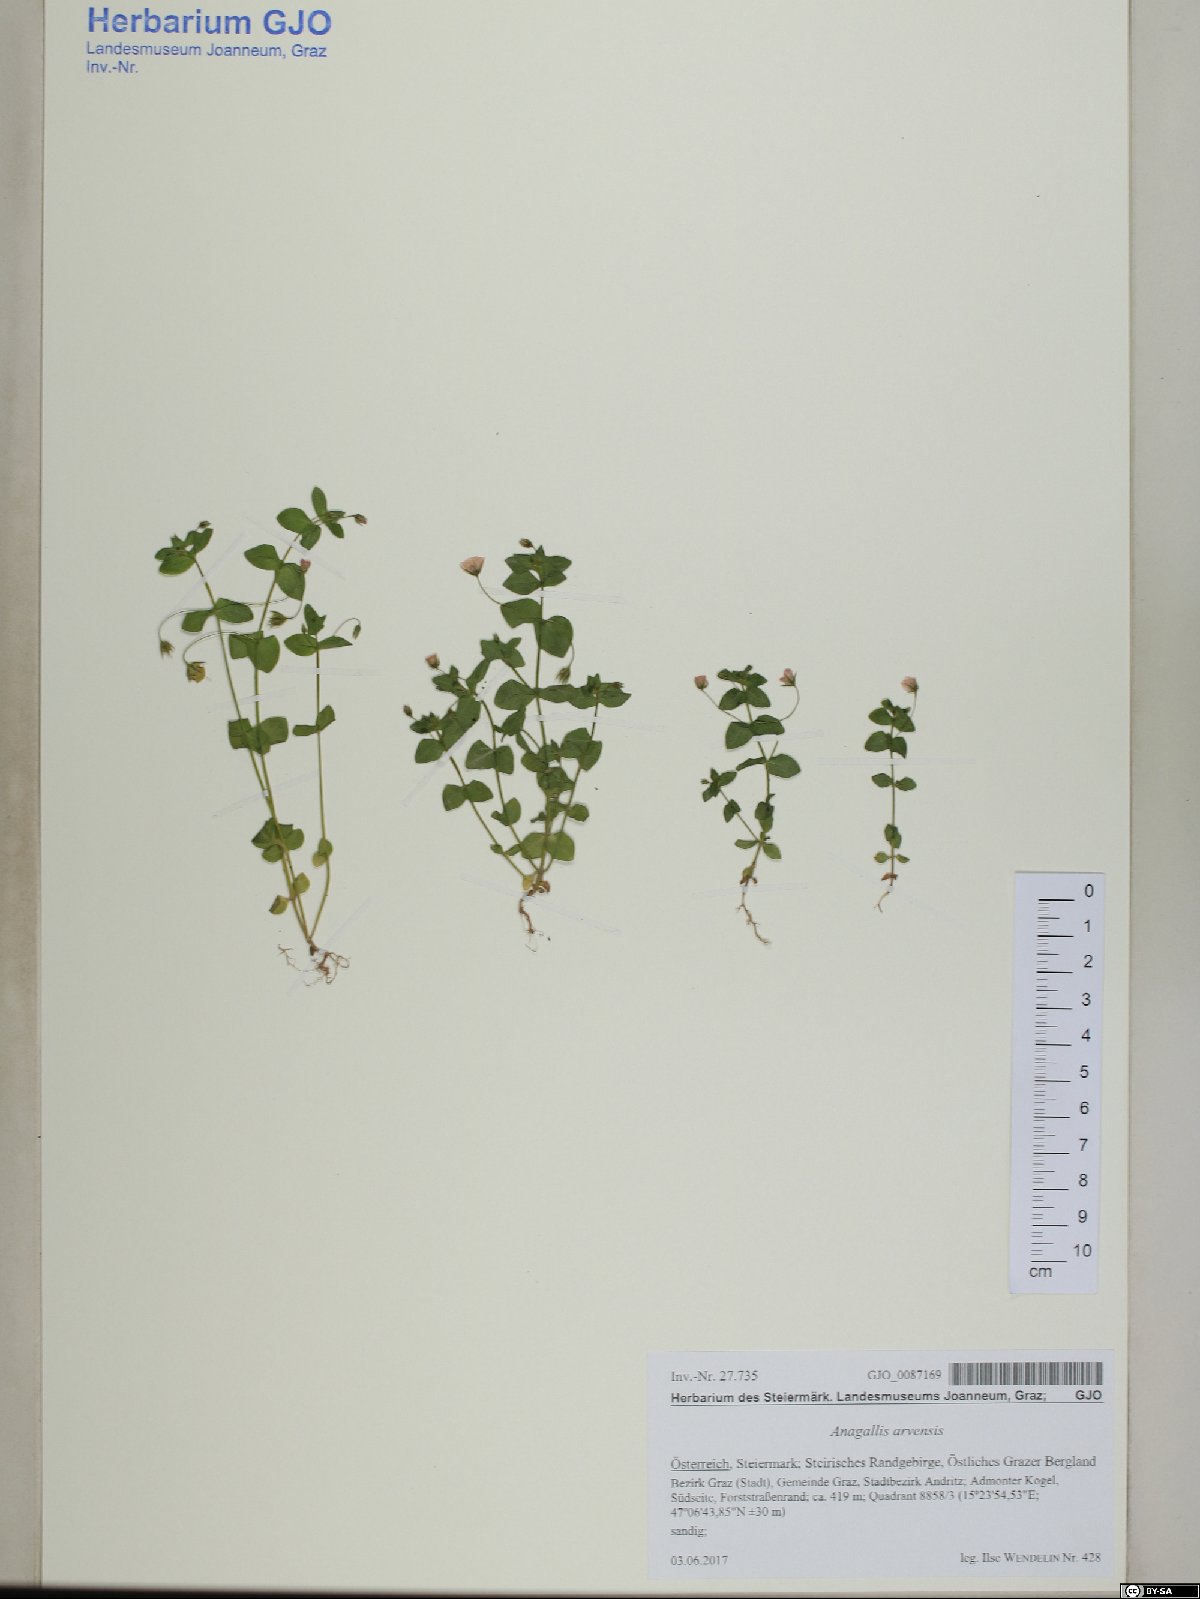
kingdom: Plantae
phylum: Tracheophyta
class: Magnoliopsida
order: Ericales
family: Primulaceae
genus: Lysimachia
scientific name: Lysimachia arvensis
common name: Scarlet pimpernel
